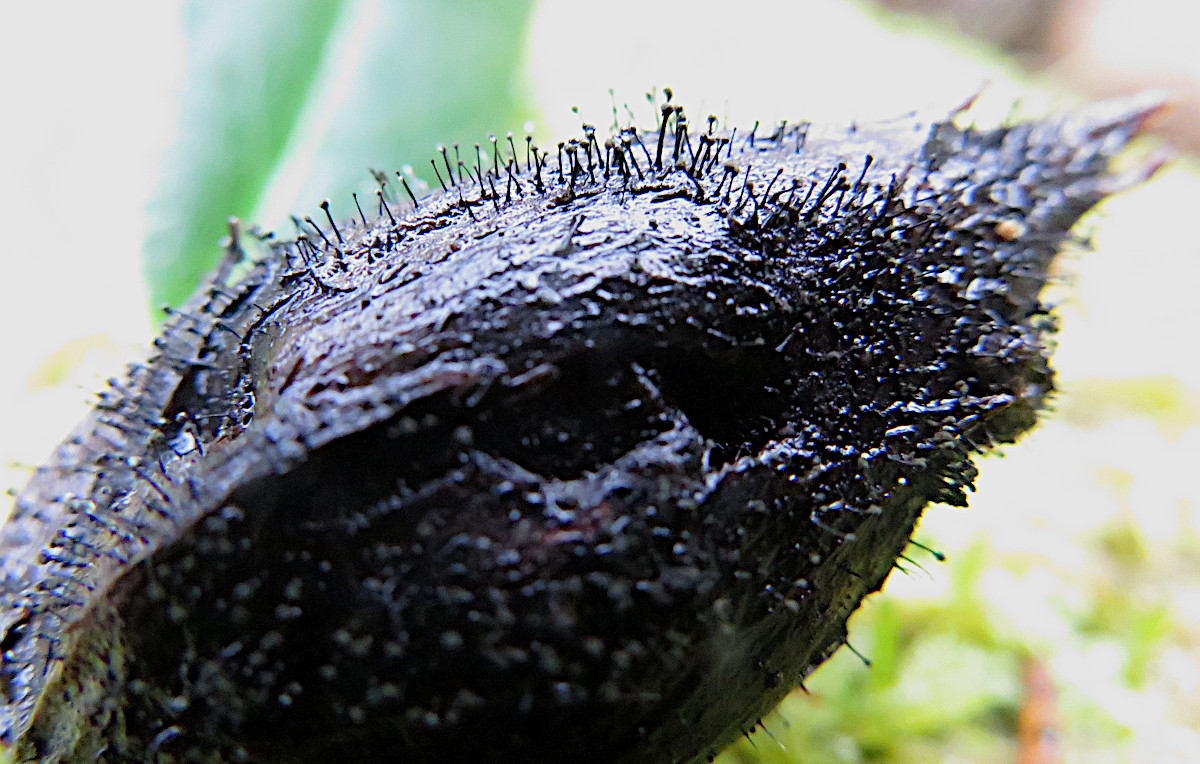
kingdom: Fungi
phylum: Ascomycota
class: Dothideomycetes
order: Pleosporales
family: Melanommataceae
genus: Seifertia
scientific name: Seifertia azaleae
